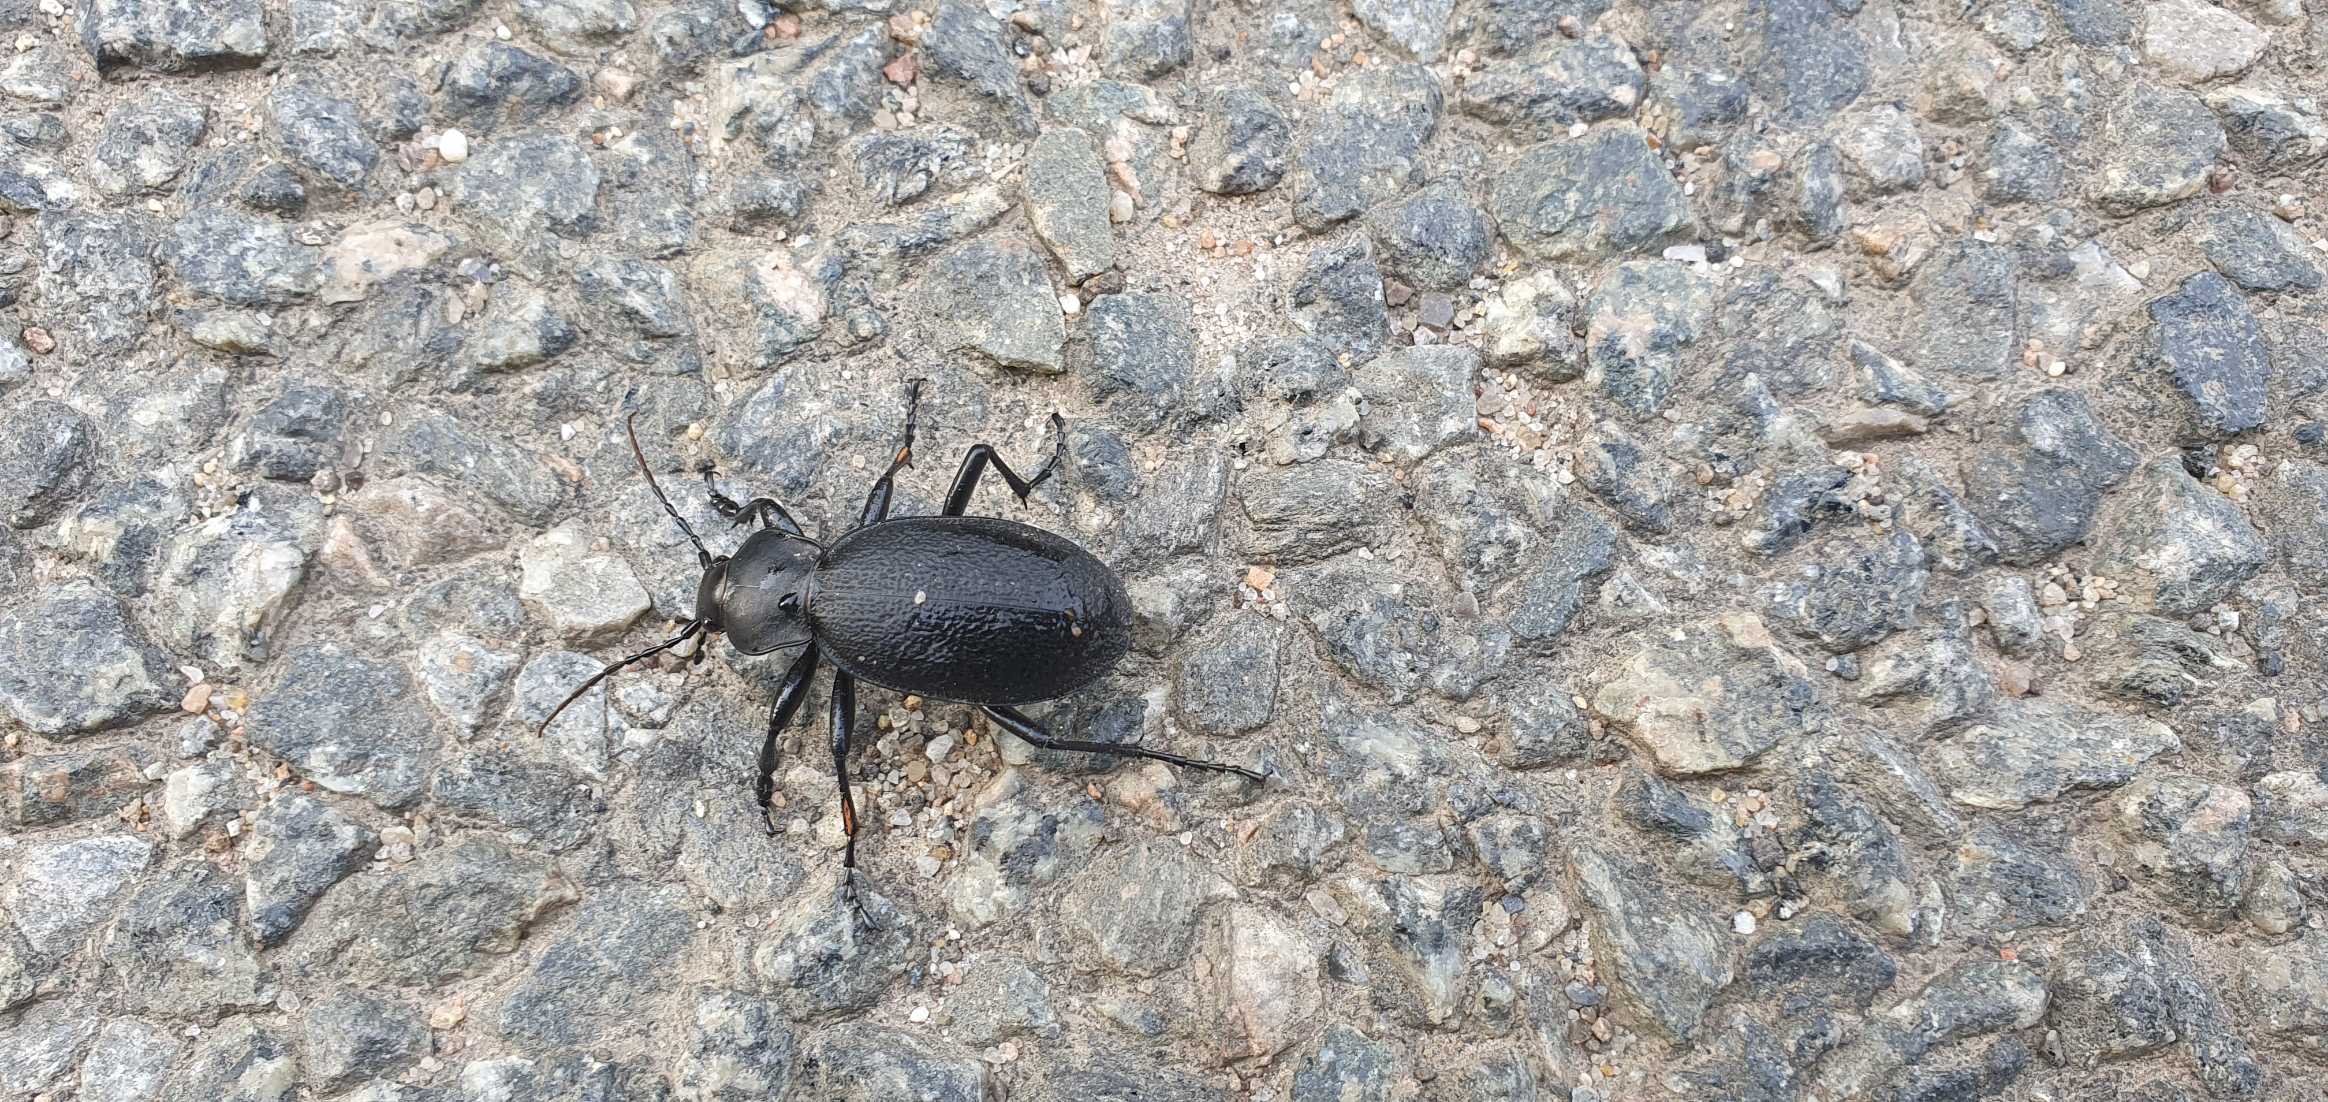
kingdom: Animalia
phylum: Arthropoda
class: Insecta
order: Coleoptera
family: Carabidae
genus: Carabus
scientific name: Carabus coriaceus
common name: Læderløber
